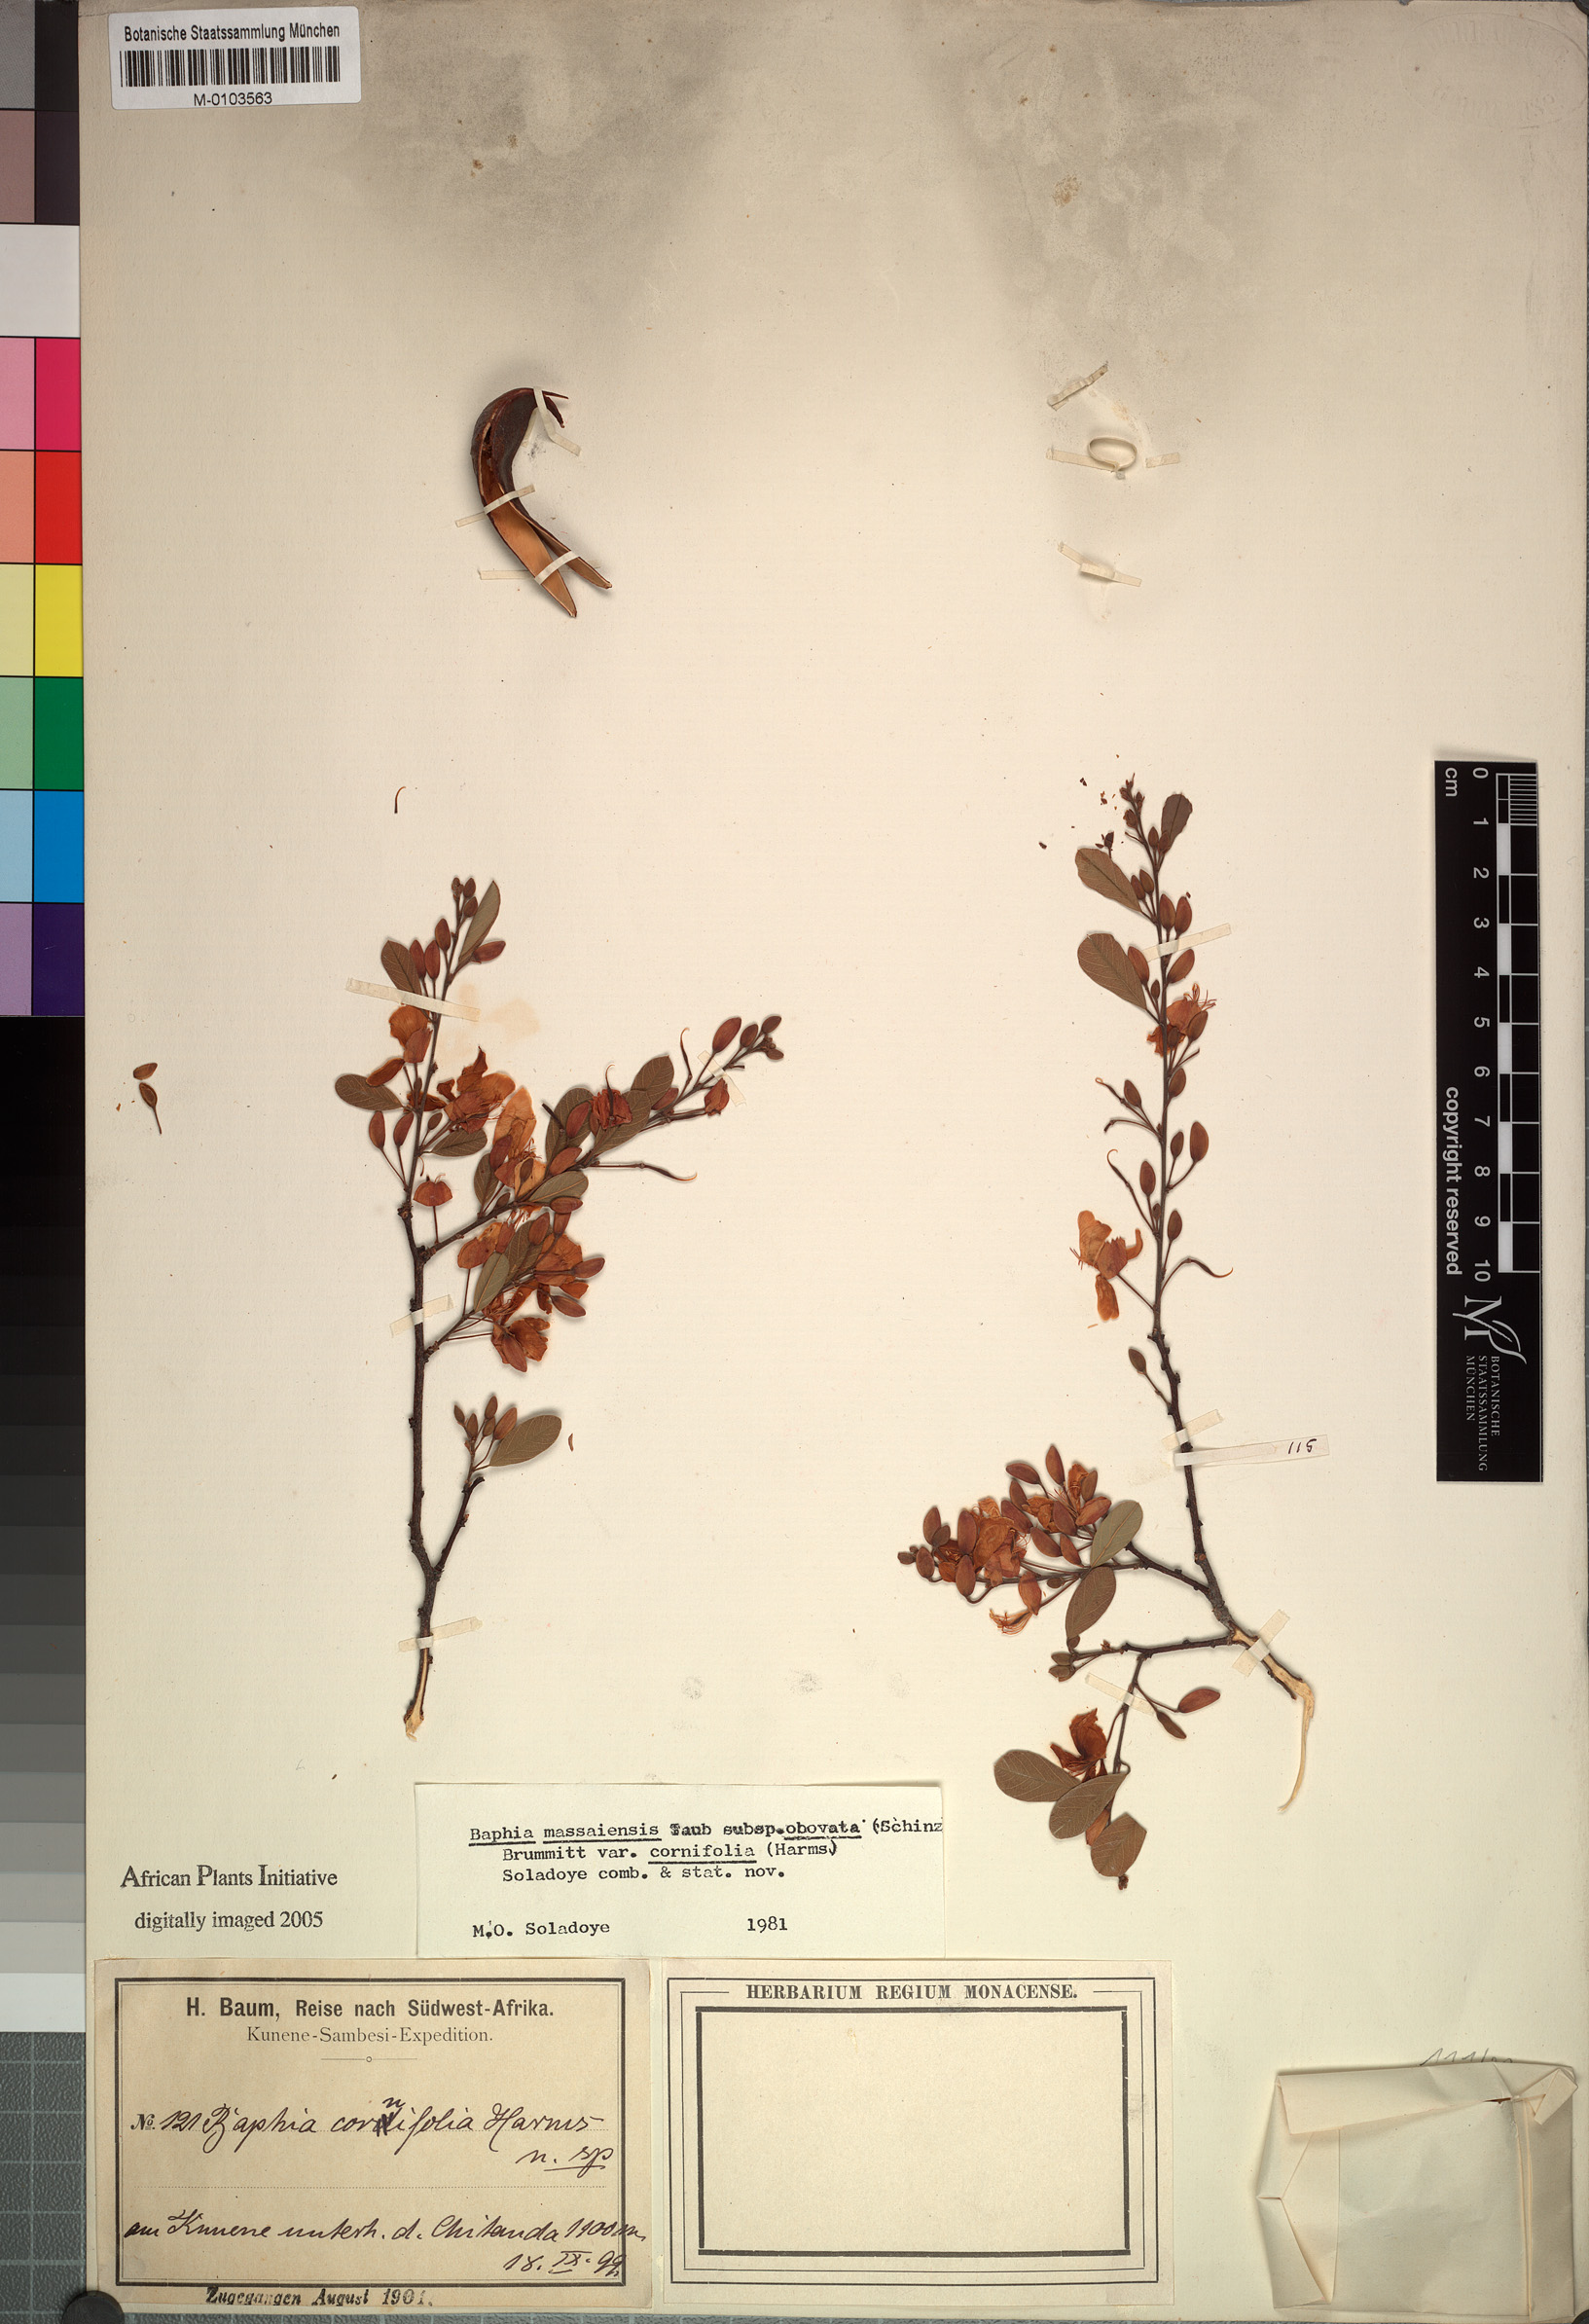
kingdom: Plantae
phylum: Tracheophyta
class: Magnoliopsida
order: Fabales
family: Fabaceae
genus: Baphia
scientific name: Baphia massaiensis
